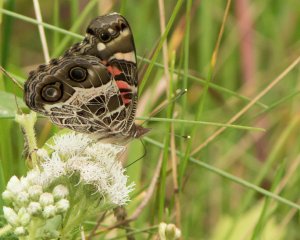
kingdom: Animalia
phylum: Arthropoda
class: Insecta
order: Lepidoptera
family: Nymphalidae
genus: Vanessa
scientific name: Vanessa virginiensis
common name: American Lady
